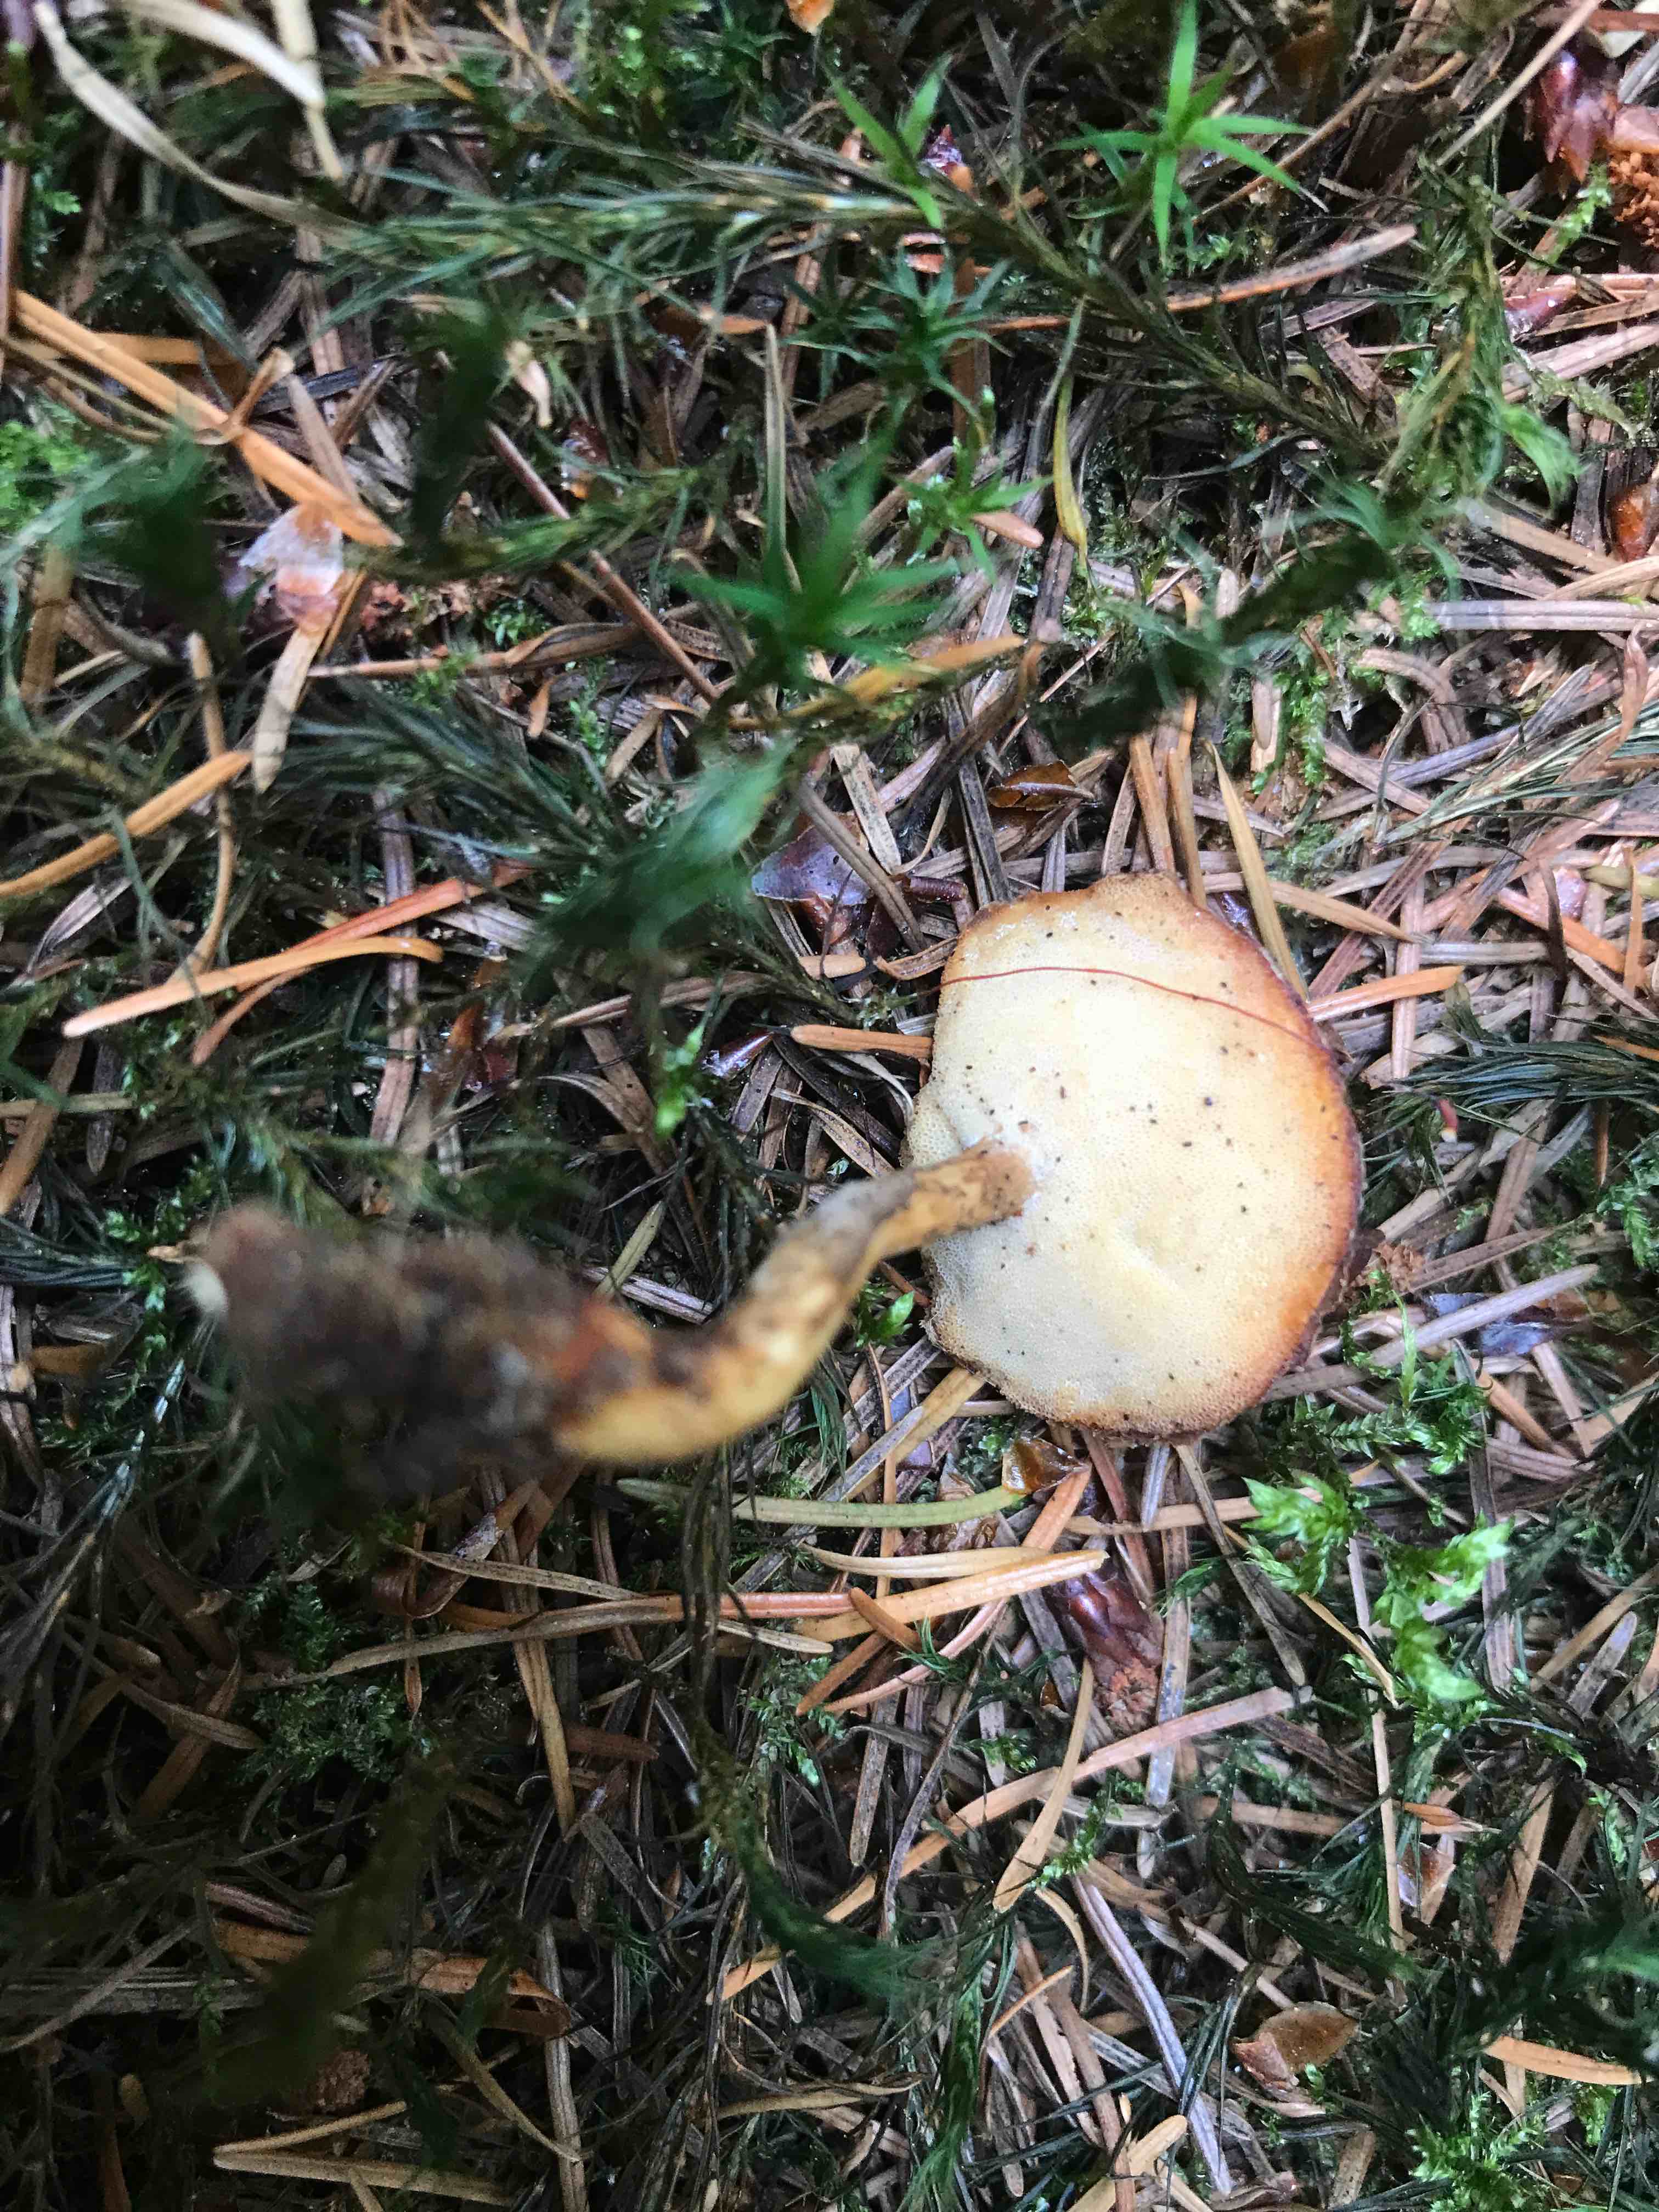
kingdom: Fungi
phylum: Basidiomycota
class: Agaricomycetes
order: Polyporales
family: Polyporaceae
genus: Lentinus
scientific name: Lentinus substrictus
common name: forårs-stilkporesvamp
